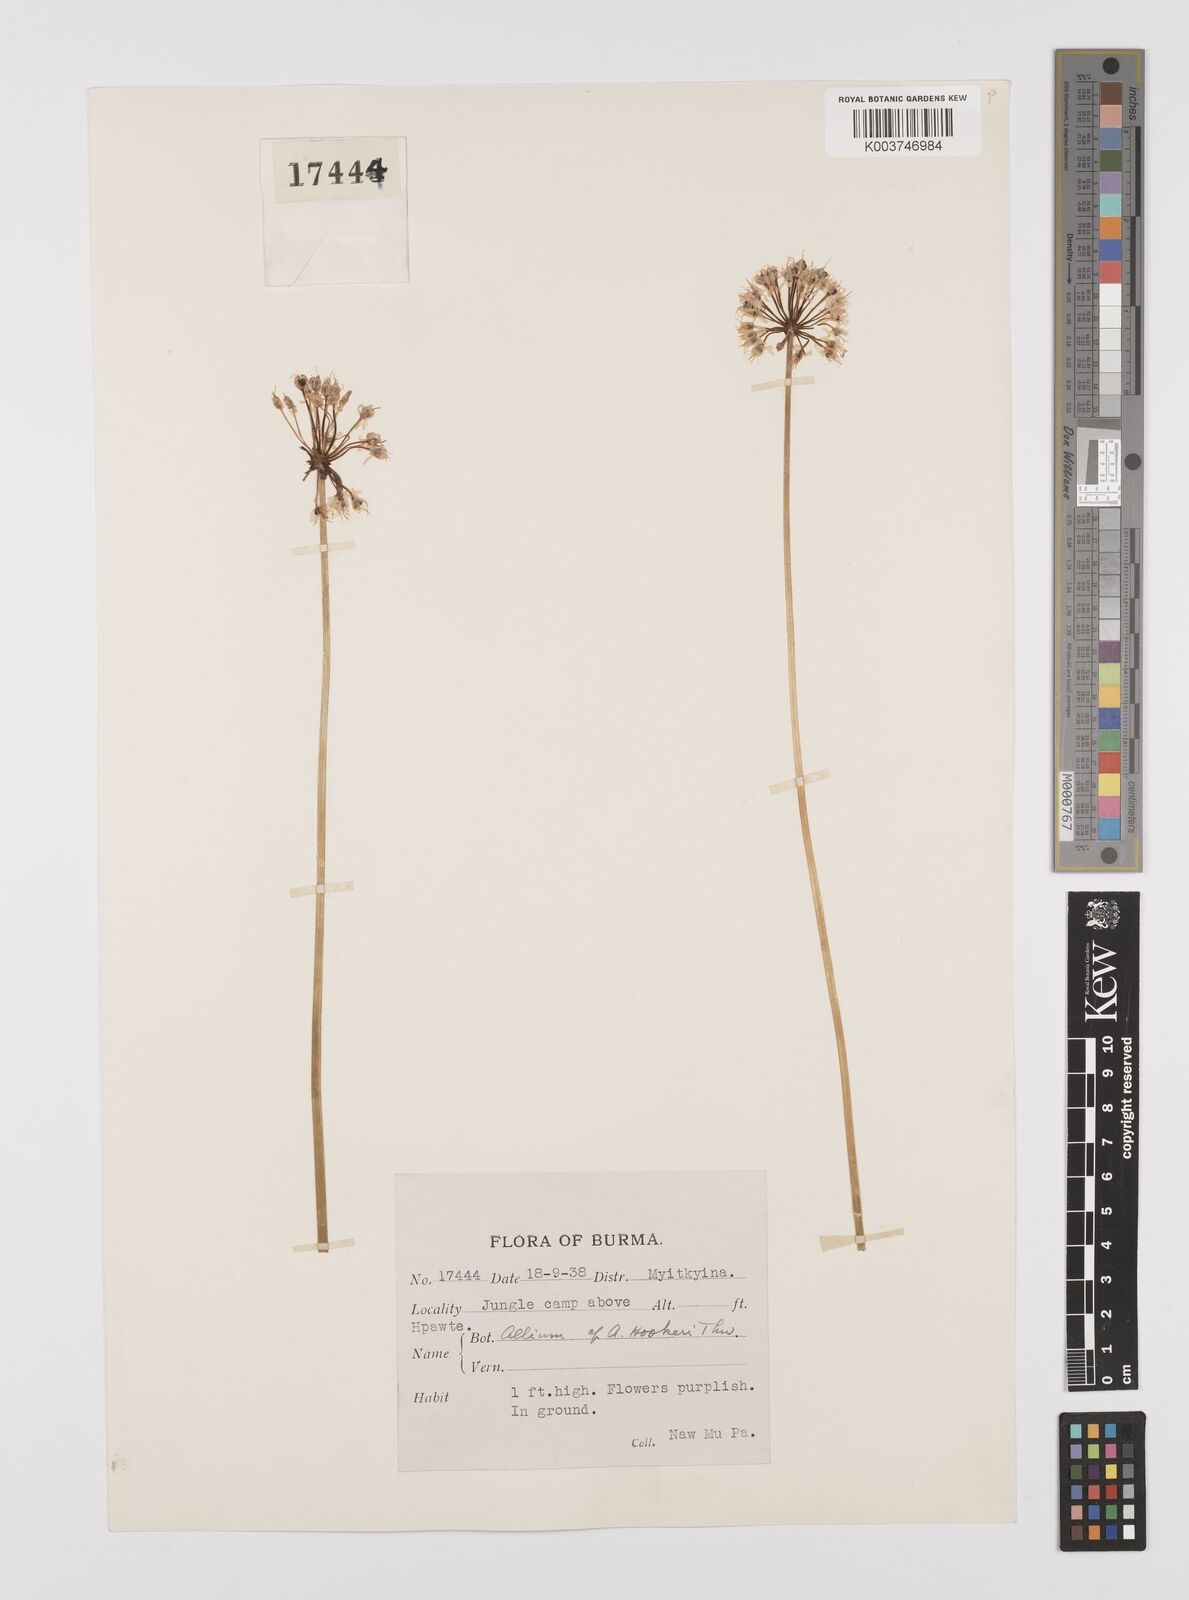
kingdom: Plantae
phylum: Tracheophyta
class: Liliopsida
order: Asparagales
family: Amaryllidaceae
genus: Allium
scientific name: Allium tuberosum
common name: Chinese chives
